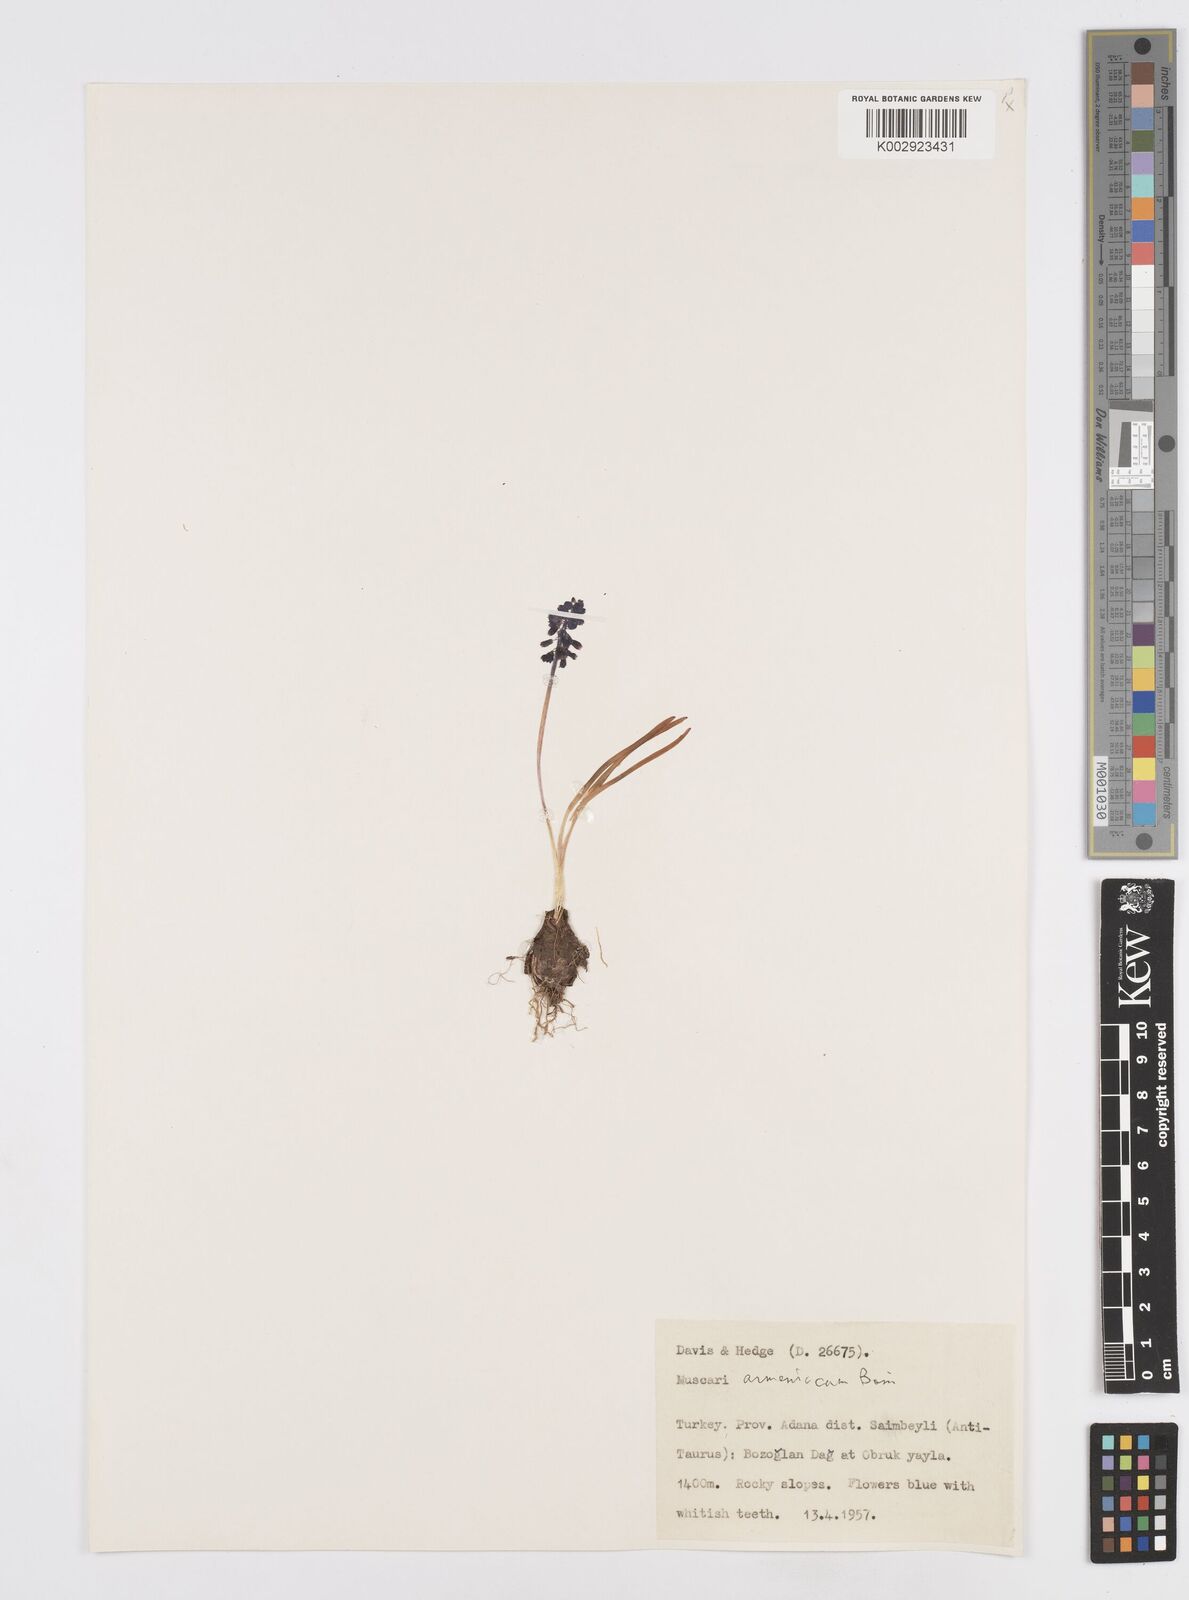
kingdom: Plantae
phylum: Tracheophyta
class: Liliopsida
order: Asparagales
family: Asparagaceae
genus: Muscari
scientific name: Muscari neglectum
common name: Grape-hyacinth
